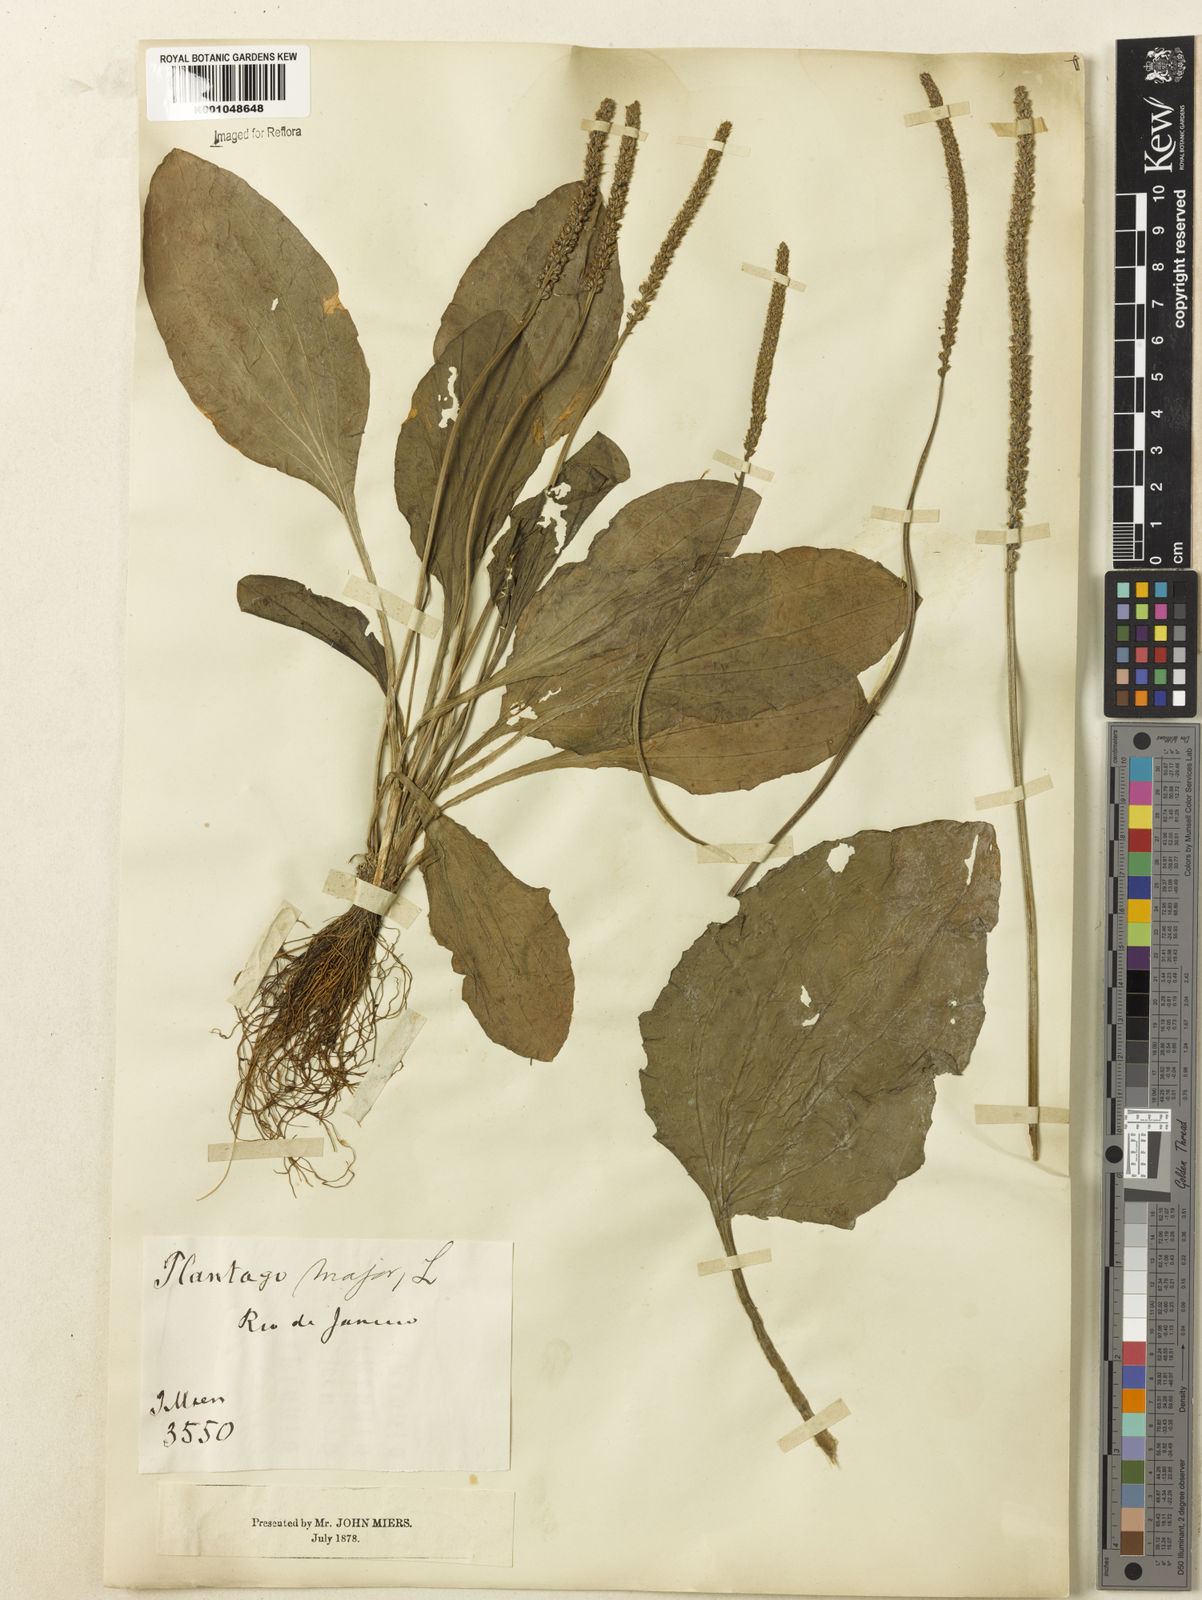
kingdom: Plantae
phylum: Tracheophyta
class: Magnoliopsida
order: Lamiales
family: Plantaginaceae
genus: Plantago
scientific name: Plantago major
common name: Common plantain
